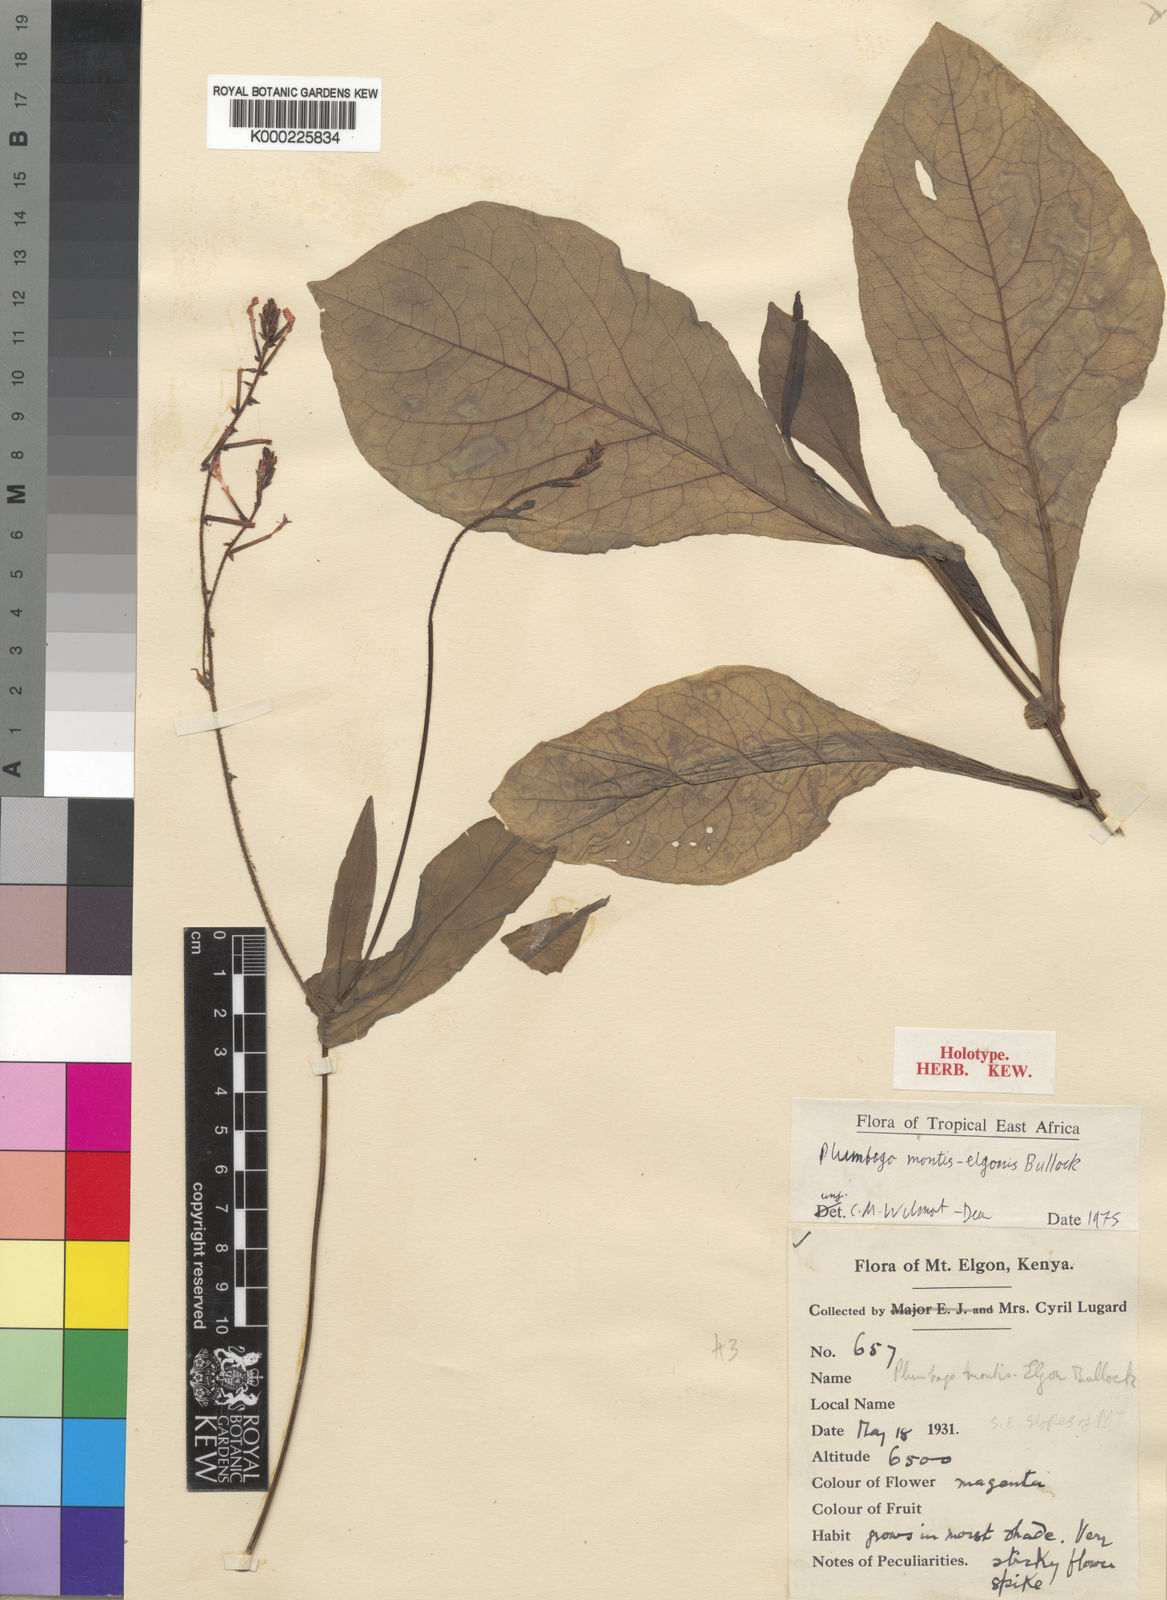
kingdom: Plantae
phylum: Tracheophyta
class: Magnoliopsida
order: Caryophyllales
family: Plumbaginaceae
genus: Plumbago
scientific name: Plumbago montis-elgonis
